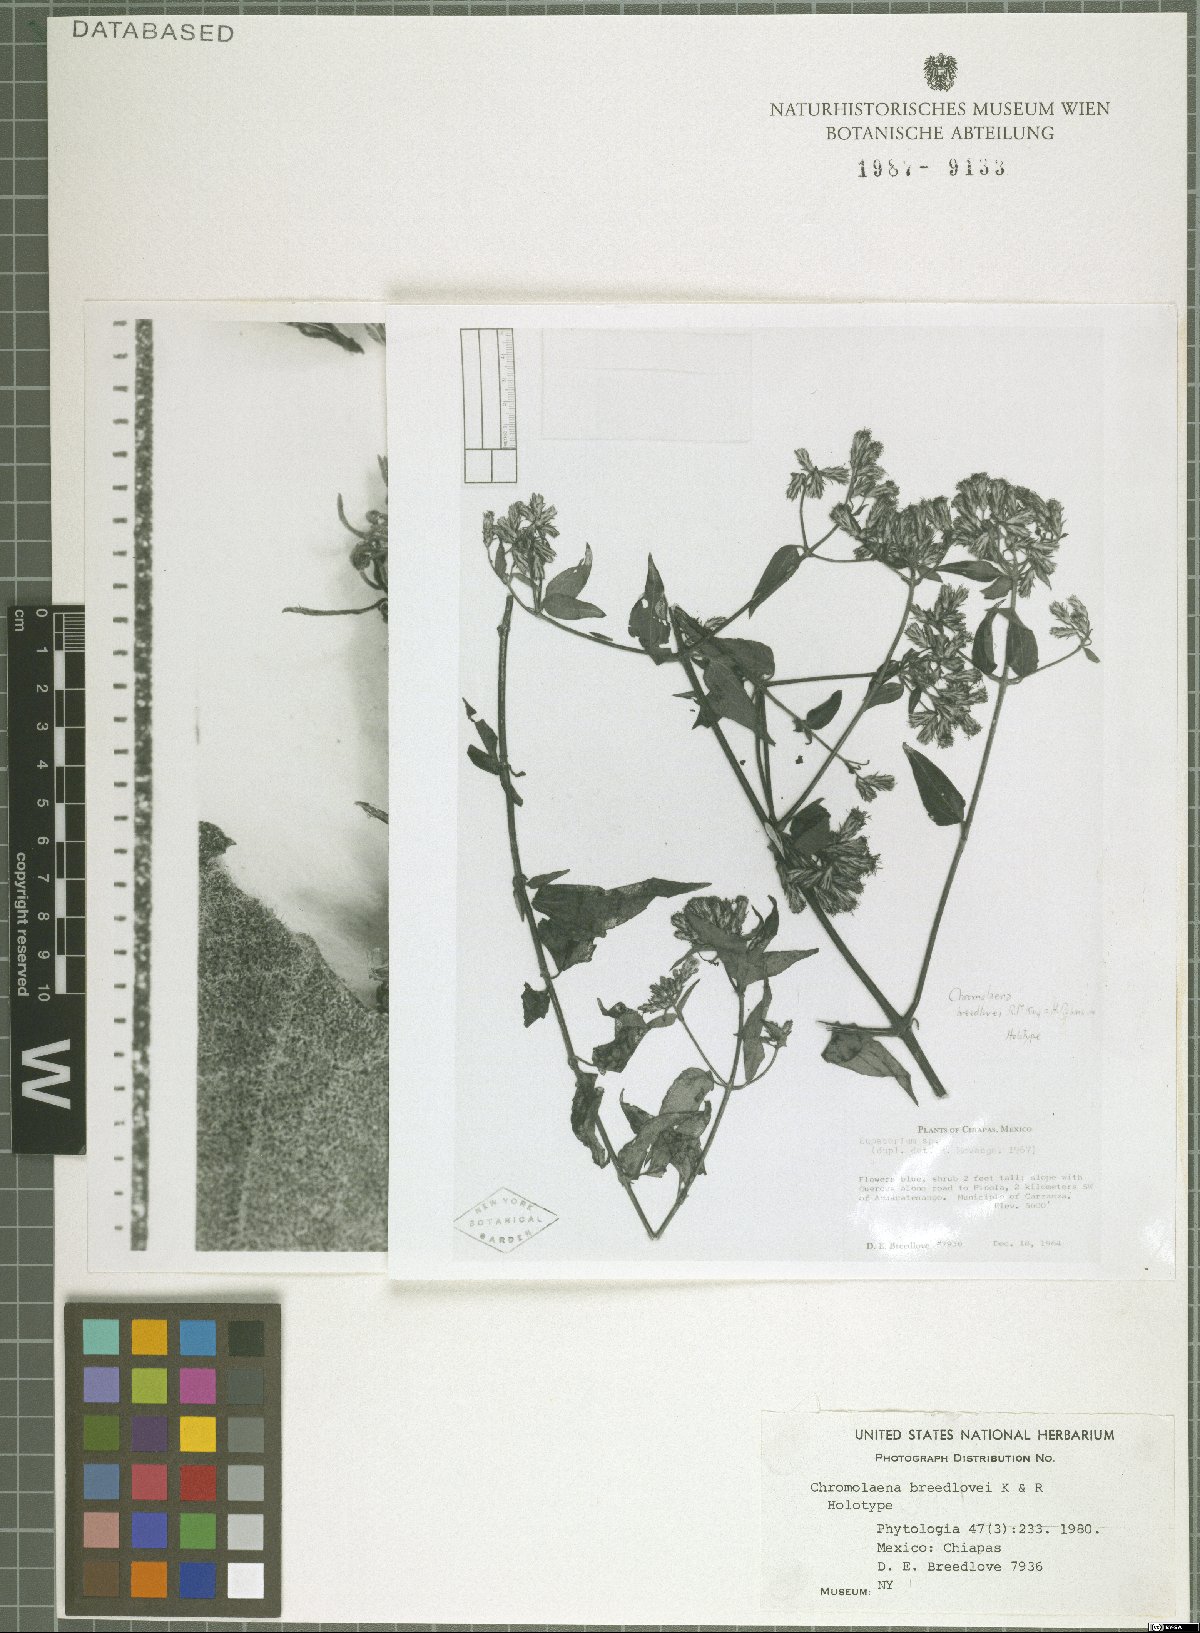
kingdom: Plantae
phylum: Tracheophyta
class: Magnoliopsida
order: Asterales
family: Asteraceae
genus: Chromolaena
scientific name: Chromolaena breedlovei
